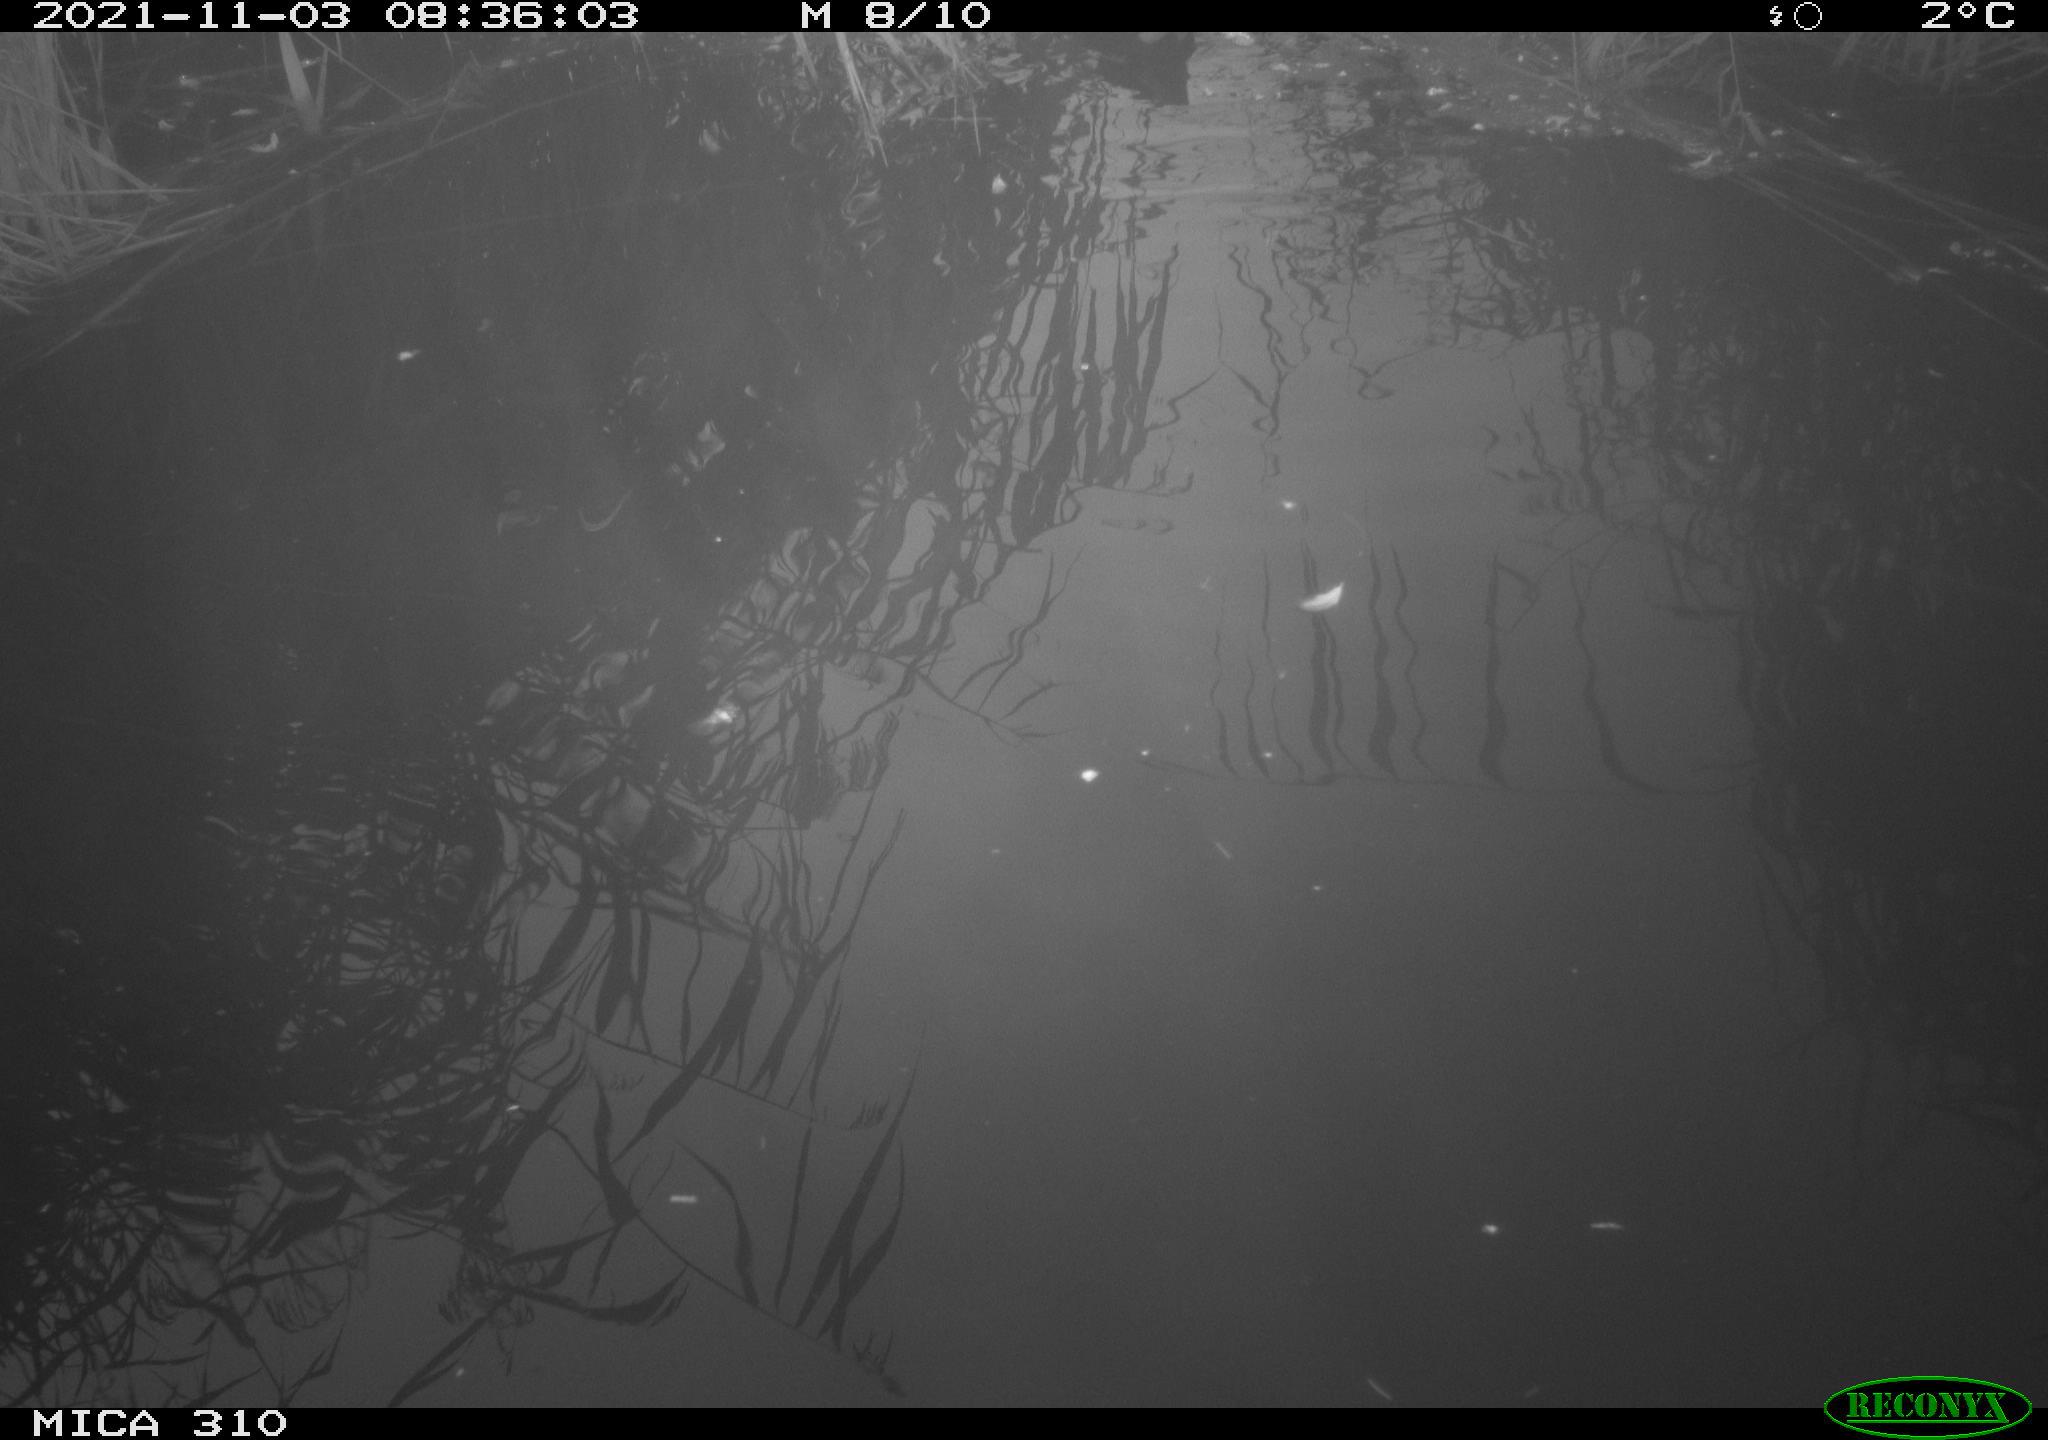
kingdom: Animalia
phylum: Chordata
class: Aves
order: Gruiformes
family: Rallidae
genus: Gallinula
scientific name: Gallinula chloropus
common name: Common moorhen
